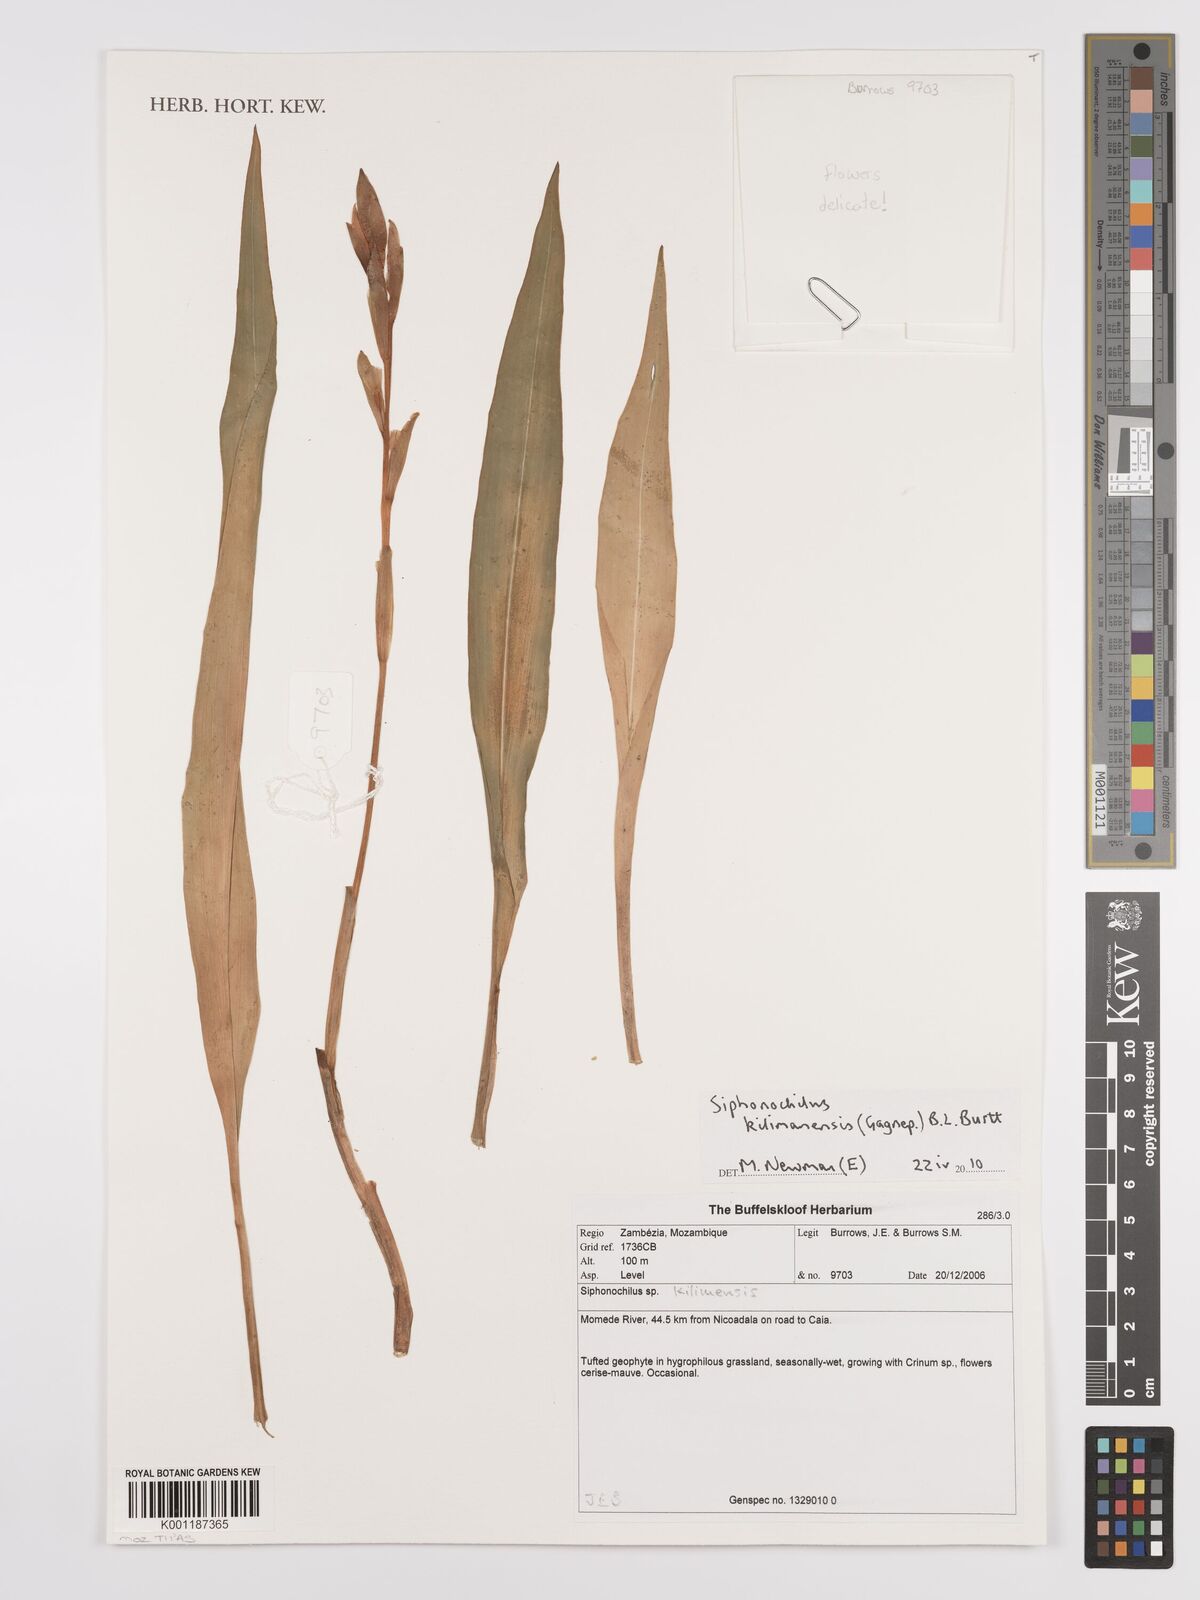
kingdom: Plantae
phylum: Tracheophyta
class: Liliopsida
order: Zingiberales
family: Zingiberaceae
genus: Siphonochilus
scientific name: Siphonochilus
